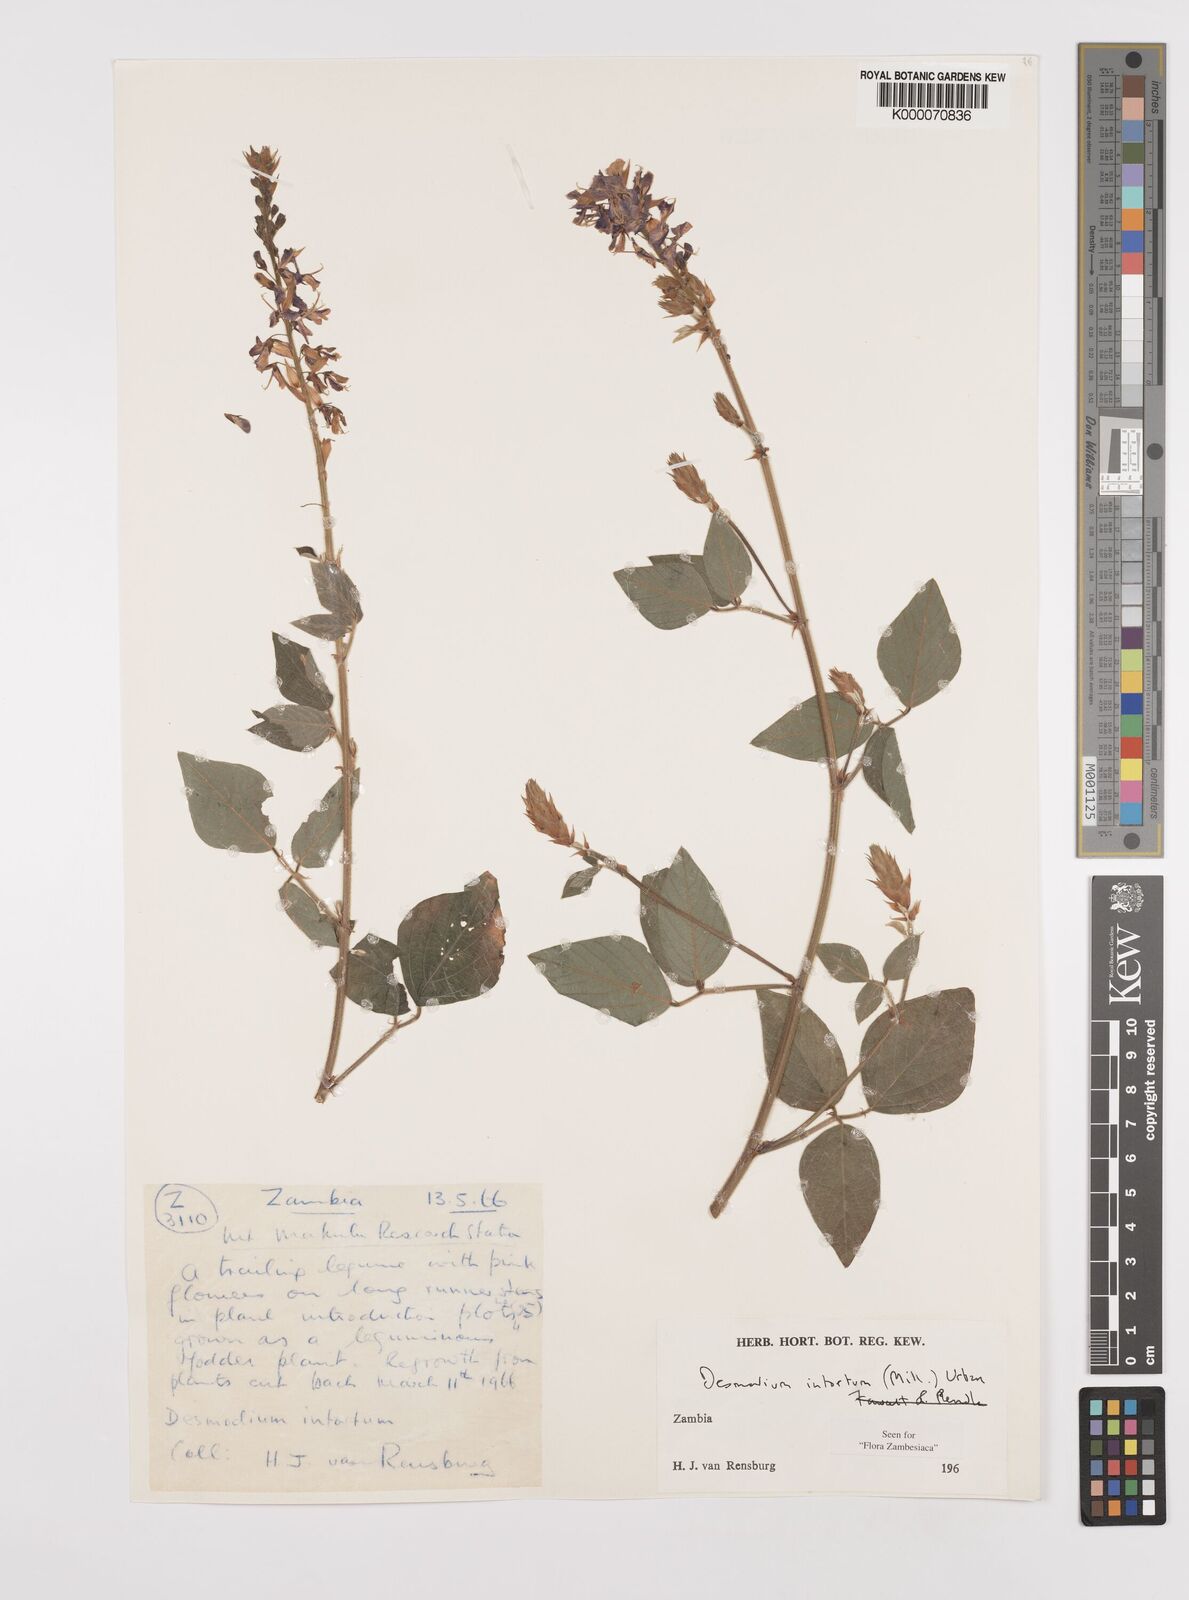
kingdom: Plantae
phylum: Tracheophyta
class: Magnoliopsida
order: Fabales
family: Fabaceae
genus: Desmodium
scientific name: Desmodium intortum
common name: Greenleaf ticktrefoil
